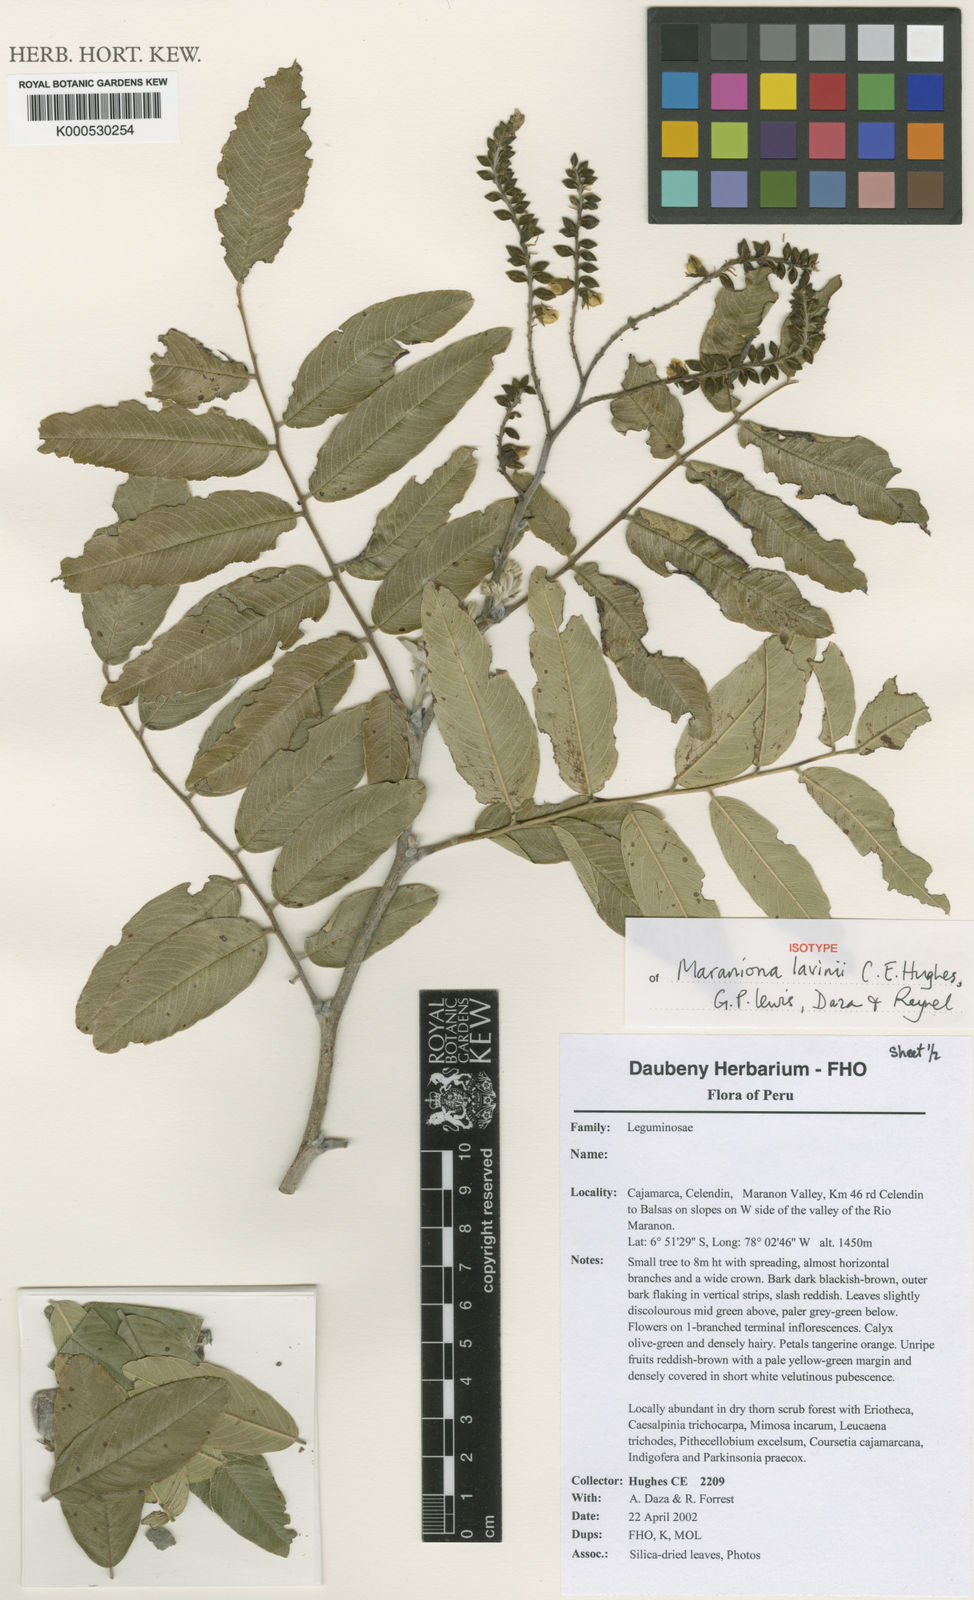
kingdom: Plantae
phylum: Tracheophyta
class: Magnoliopsida
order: Fabales
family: Fabaceae
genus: Maraniona
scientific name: Maraniona lavinii
